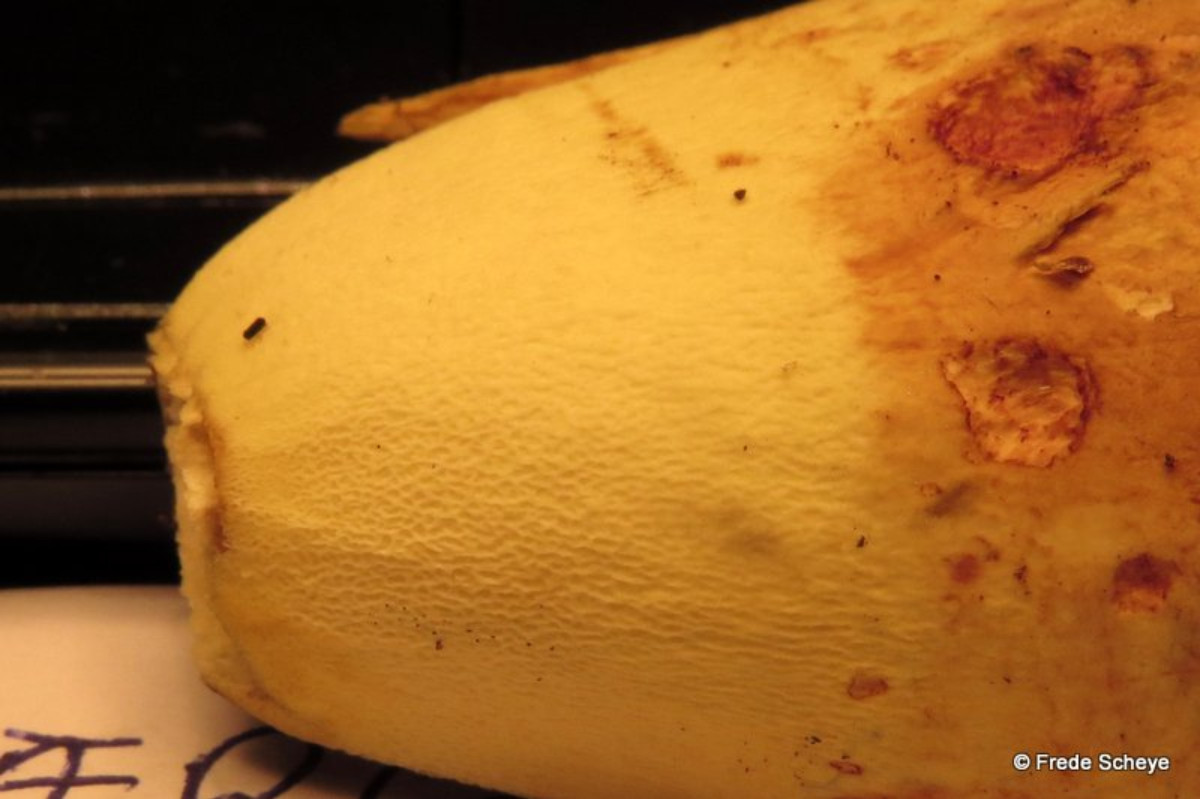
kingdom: Fungi
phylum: Basidiomycota
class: Agaricomycetes
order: Boletales
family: Boletaceae
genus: Butyriboletus
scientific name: Butyriboletus appendiculatus
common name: tenstokket rørhat
